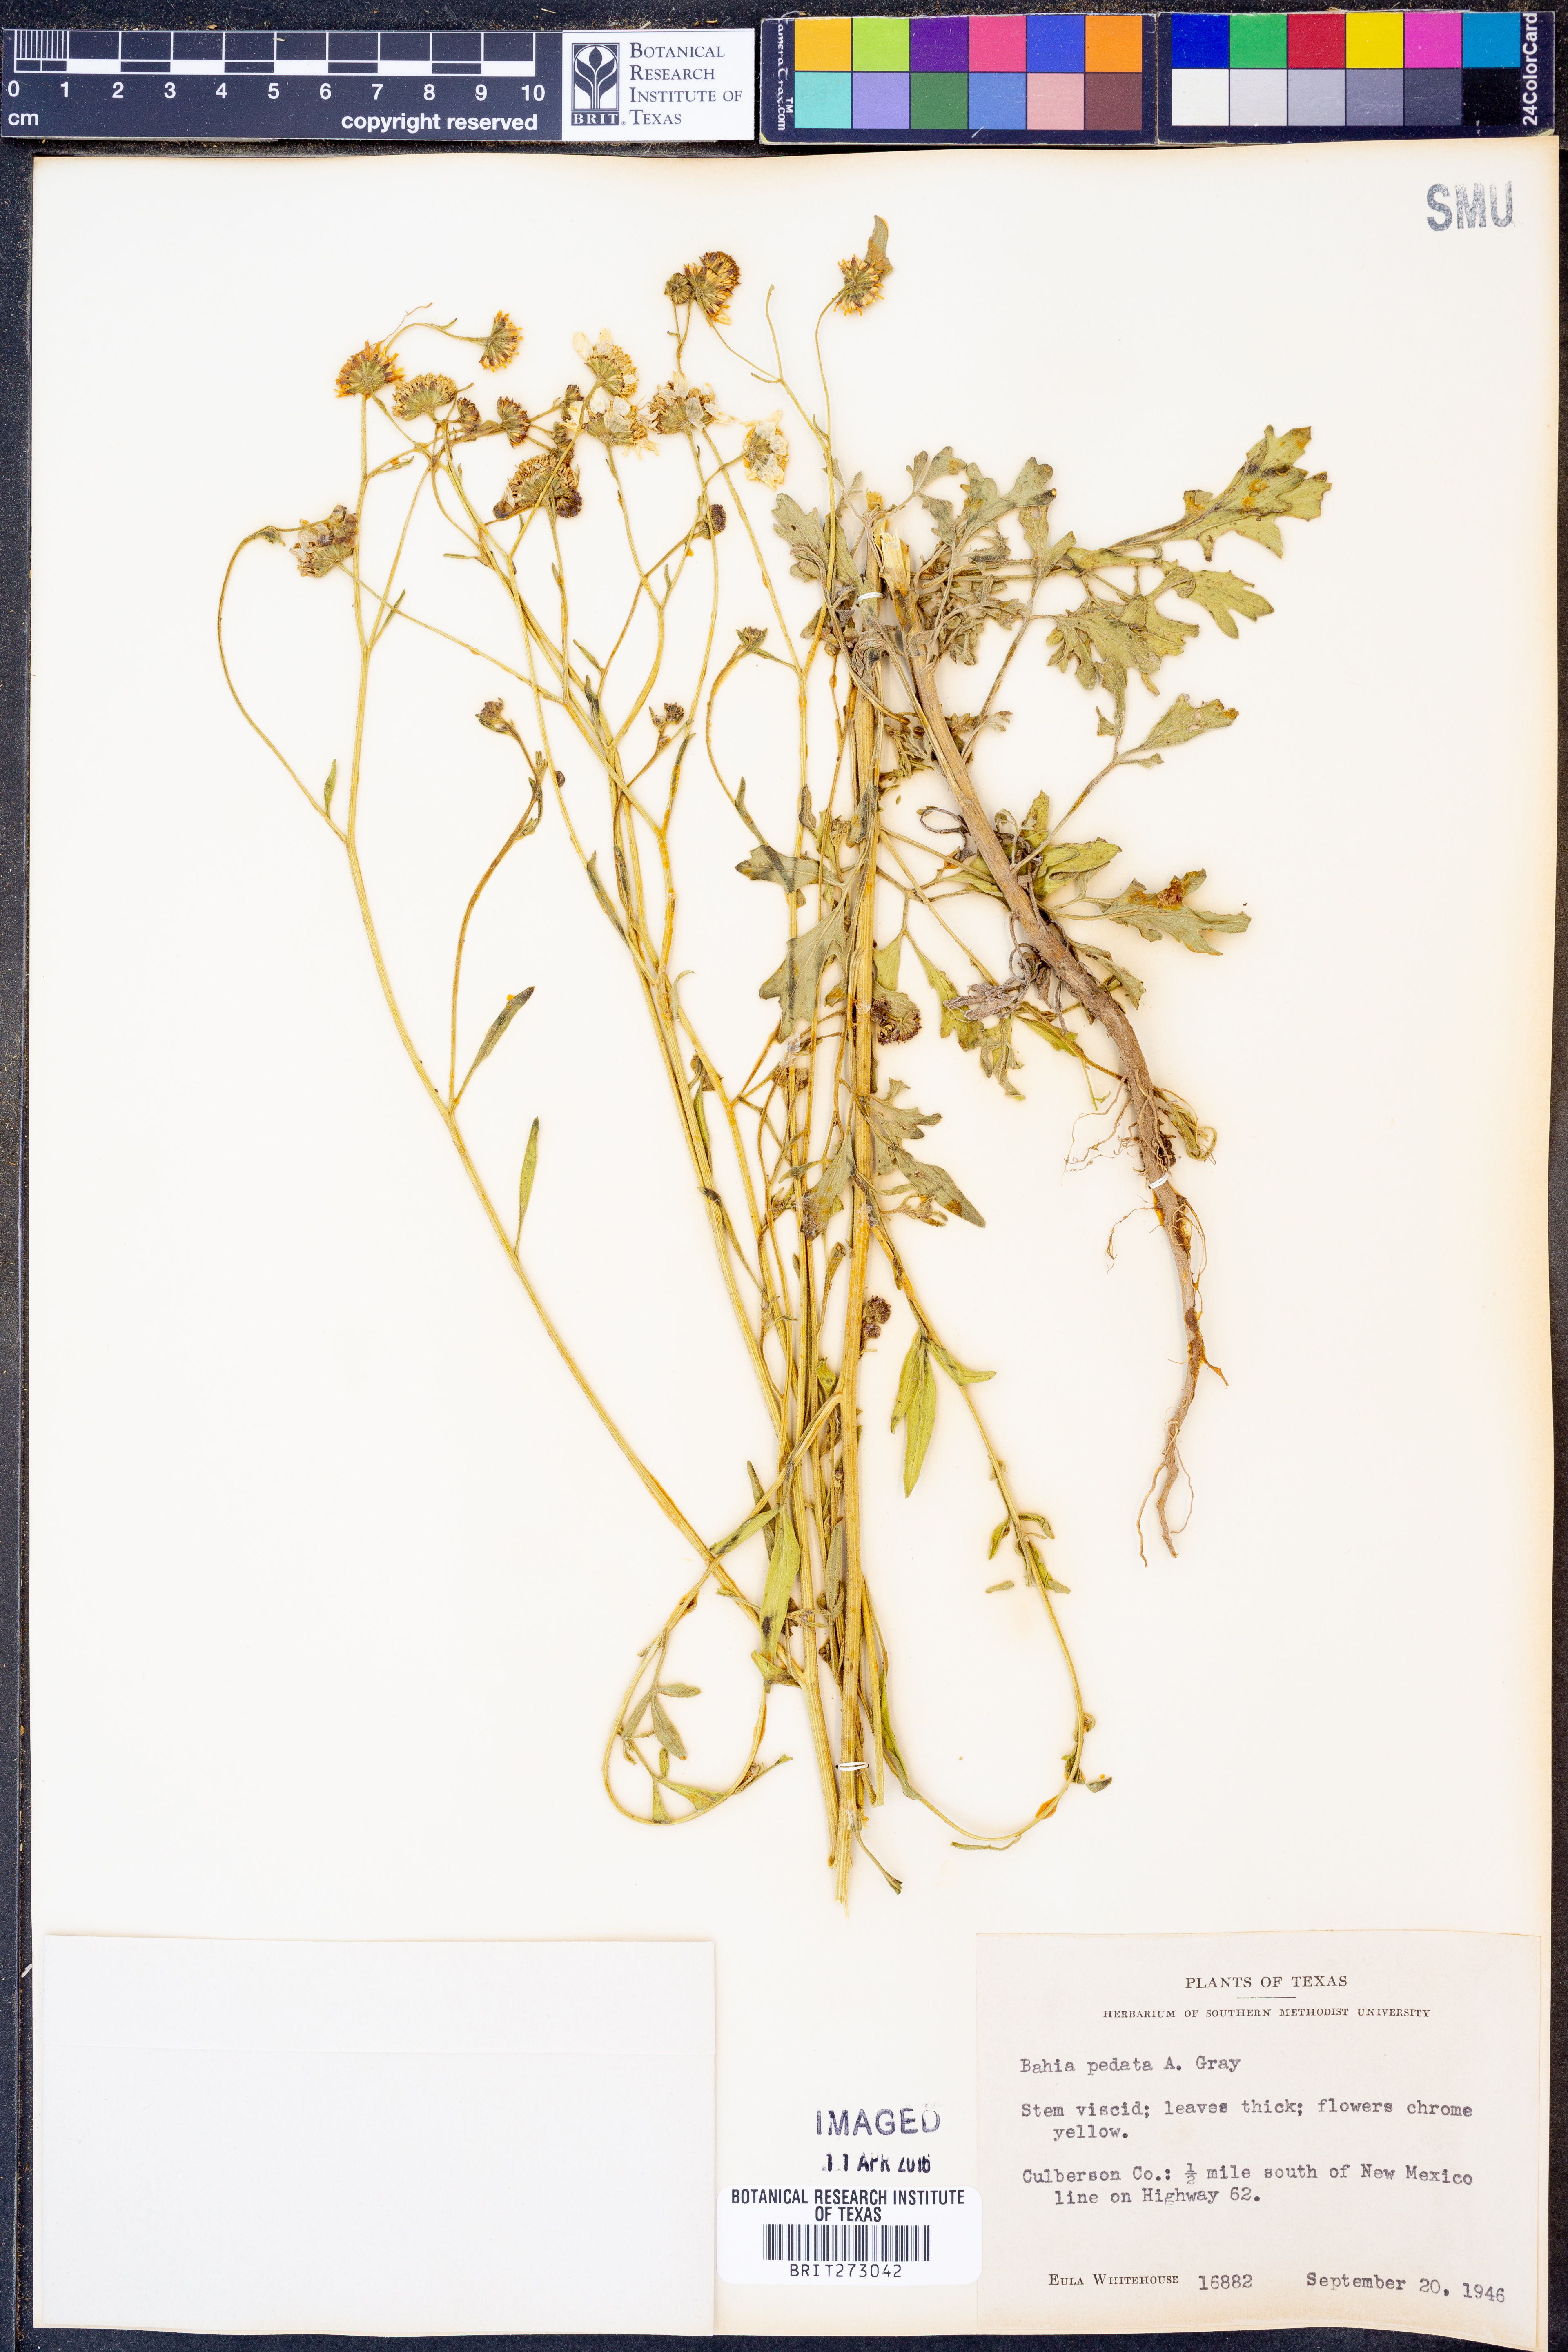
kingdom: Plantae
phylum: Tracheophyta
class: Magnoliopsida
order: Asterales
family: Asteraceae
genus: Hymenothrix
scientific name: Hymenothrix pedata
